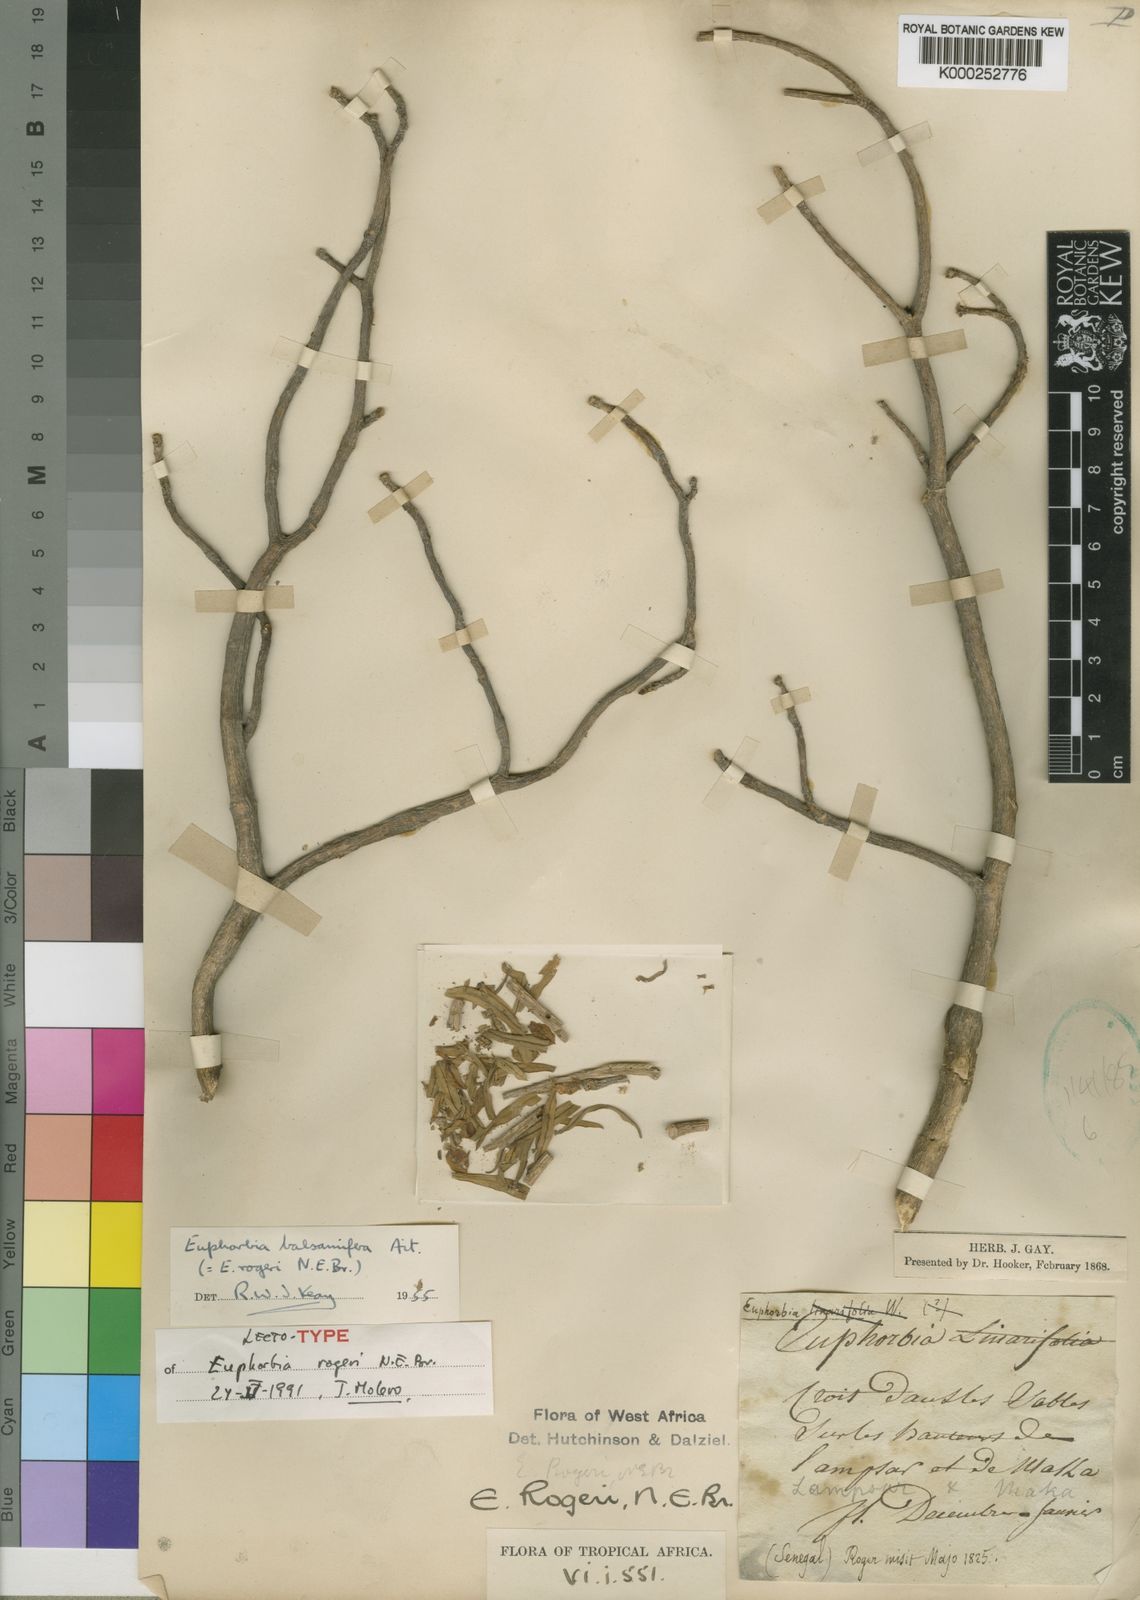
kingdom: Plantae
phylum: Tracheophyta
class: Magnoliopsida
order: Malpighiales
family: Euphorbiaceae
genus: Euphorbia
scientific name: Euphorbia balsamifera
